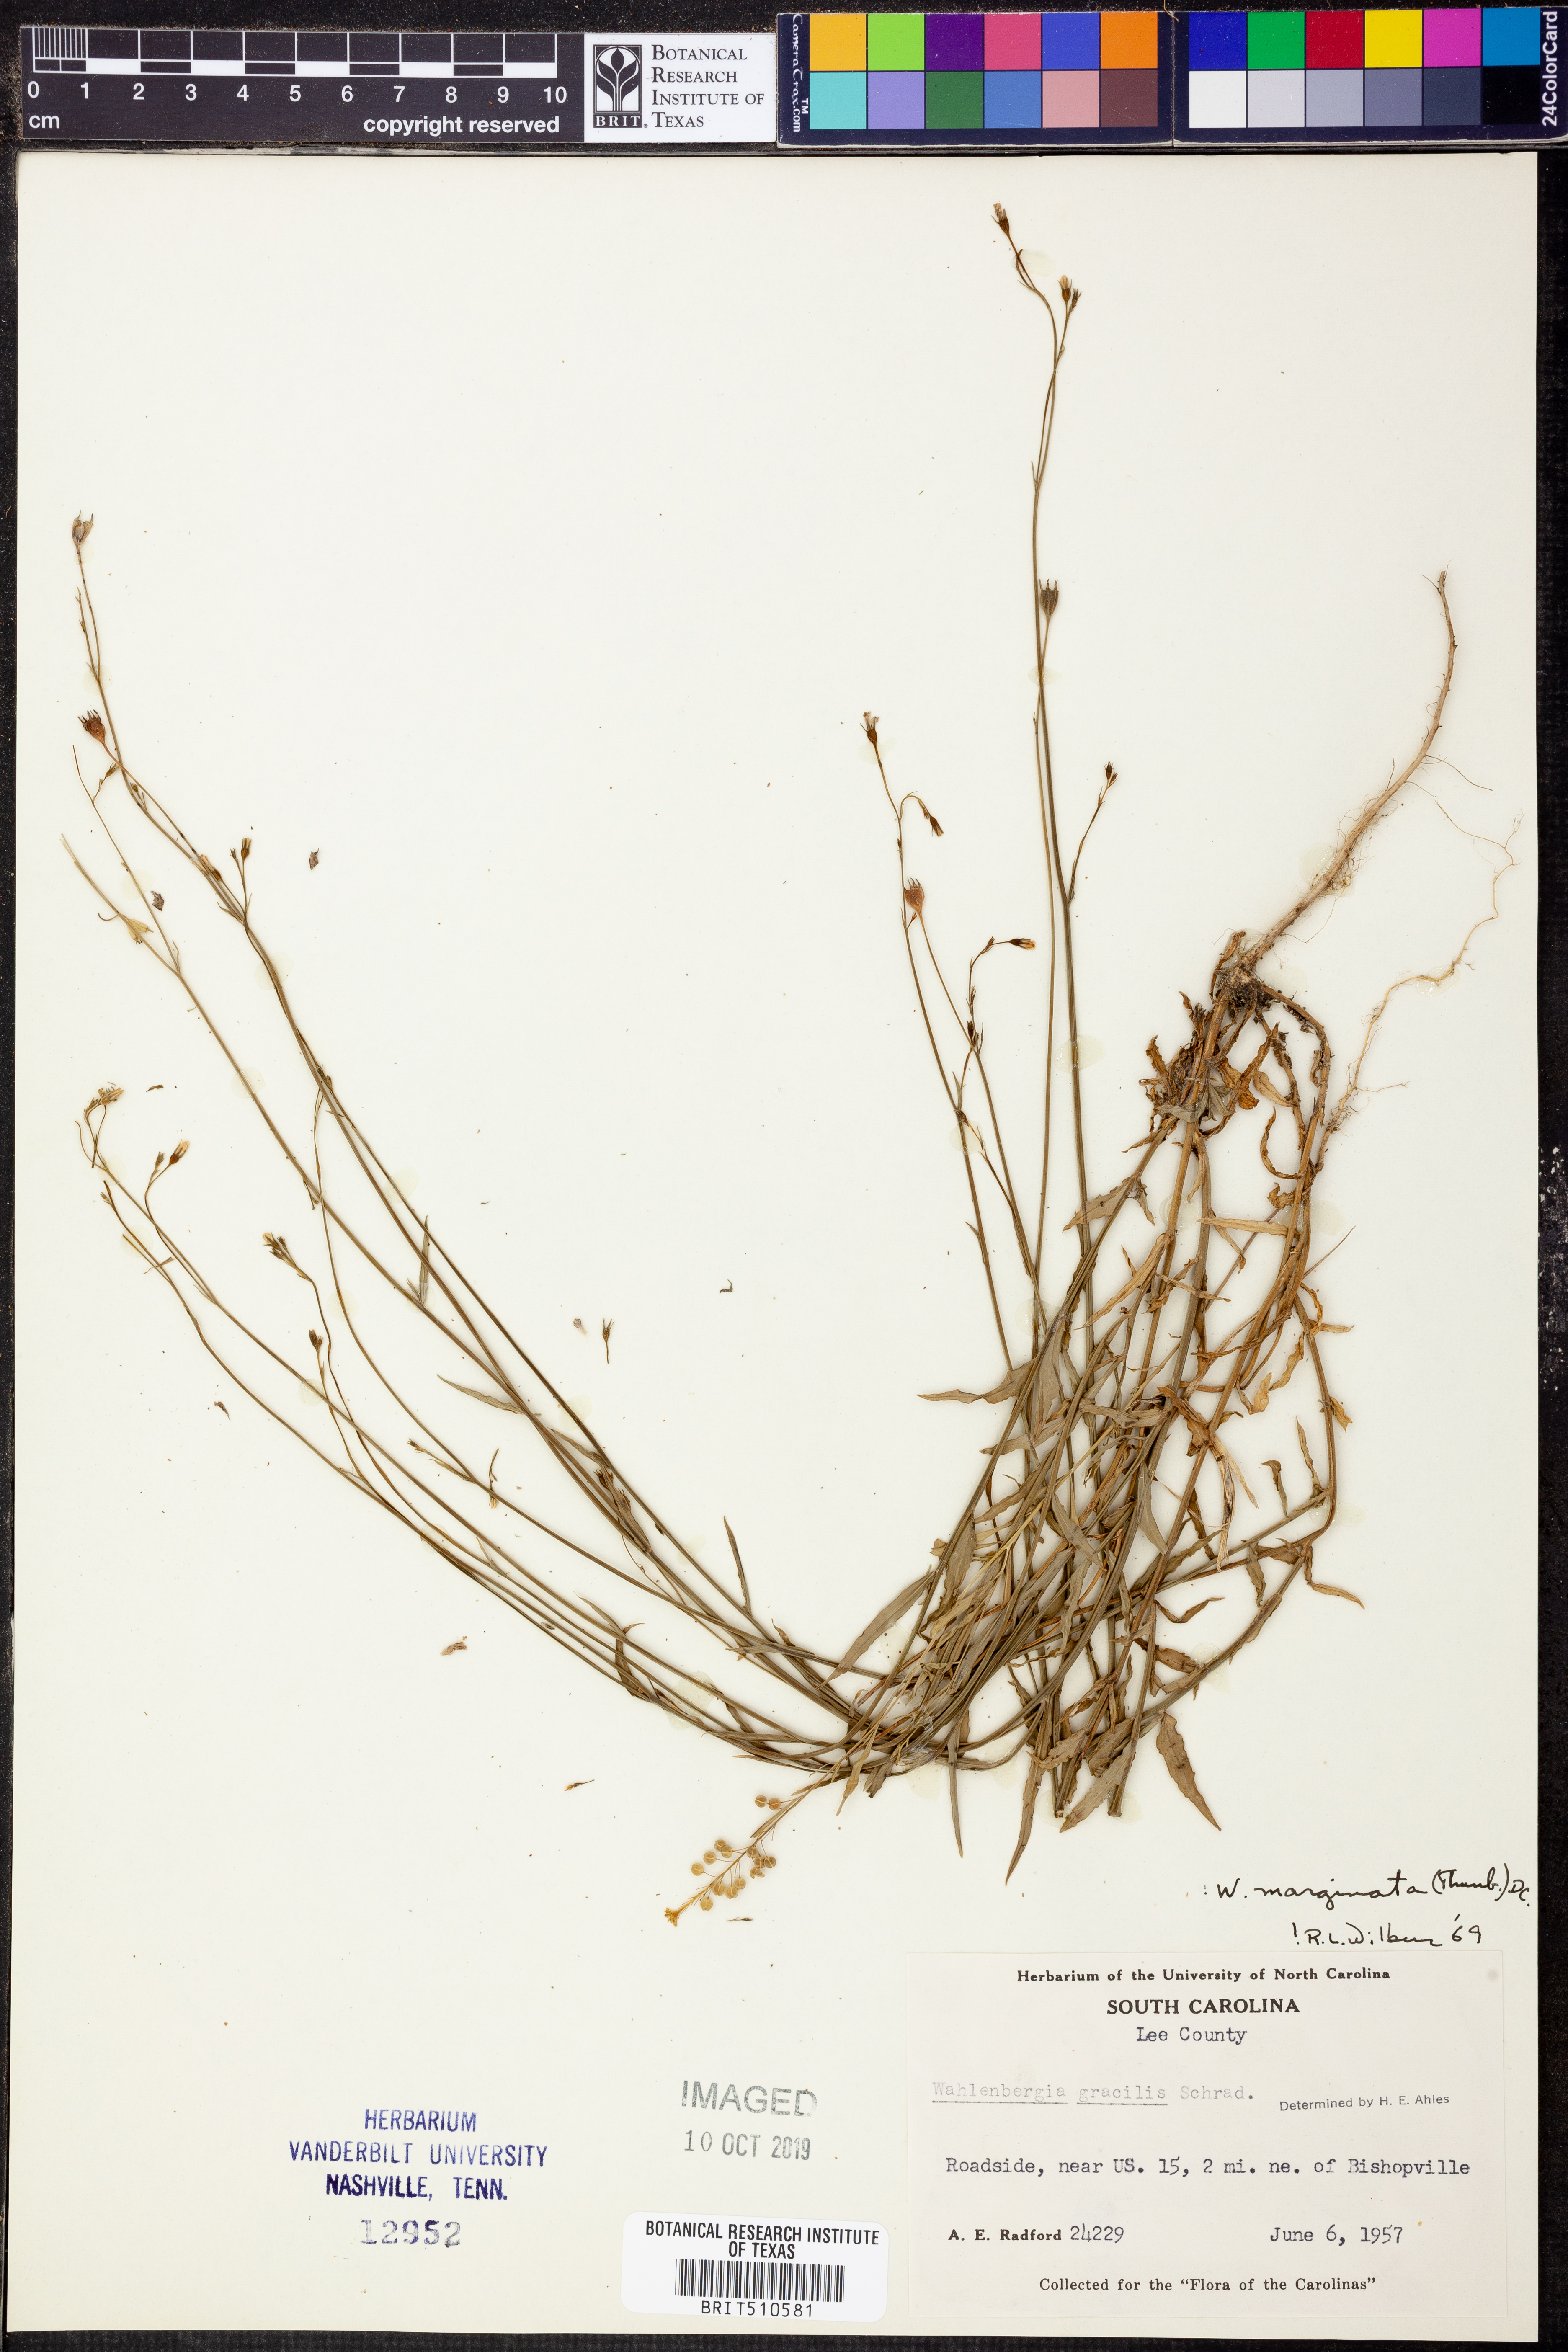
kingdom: Plantae
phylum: Tracheophyta
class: Magnoliopsida
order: Asterales
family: Campanulaceae
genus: Wahlenbergia
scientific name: Wahlenbergia marginata
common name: Southern rockbell
